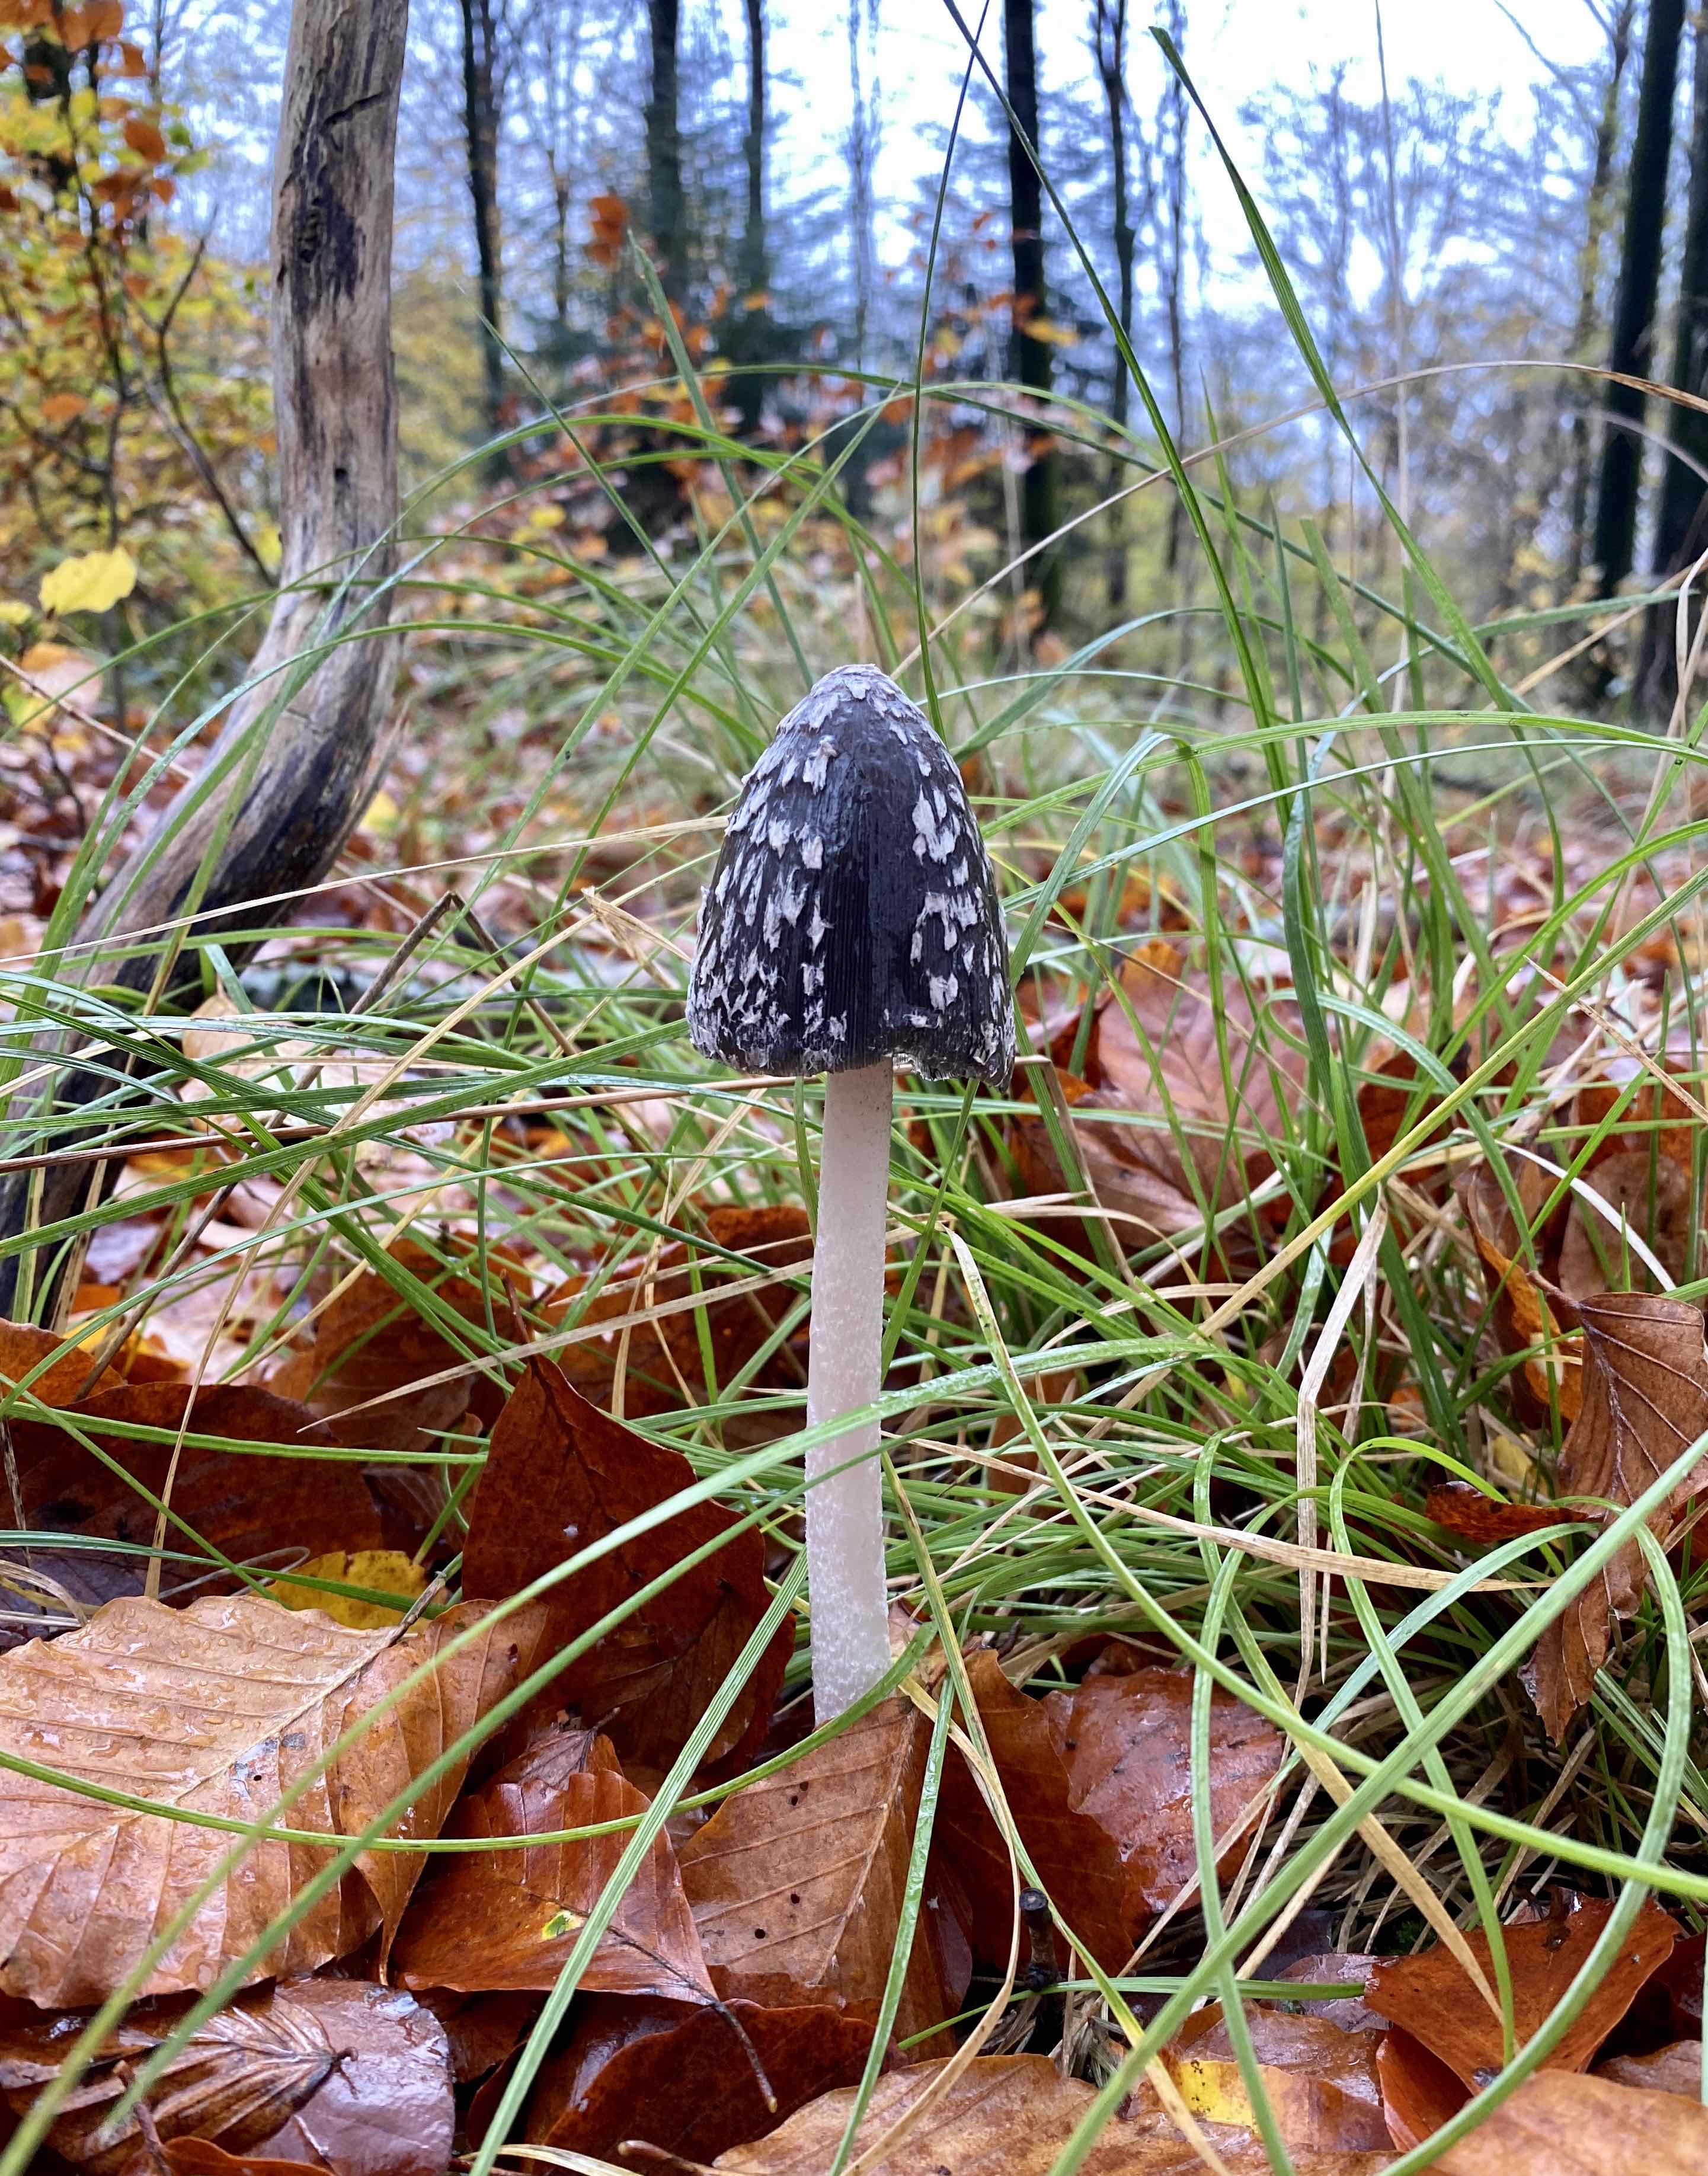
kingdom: Fungi
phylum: Basidiomycota
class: Agaricomycetes
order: Agaricales
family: Psathyrellaceae
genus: Coprinopsis
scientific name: Coprinopsis picacea
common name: skade-blækhat
